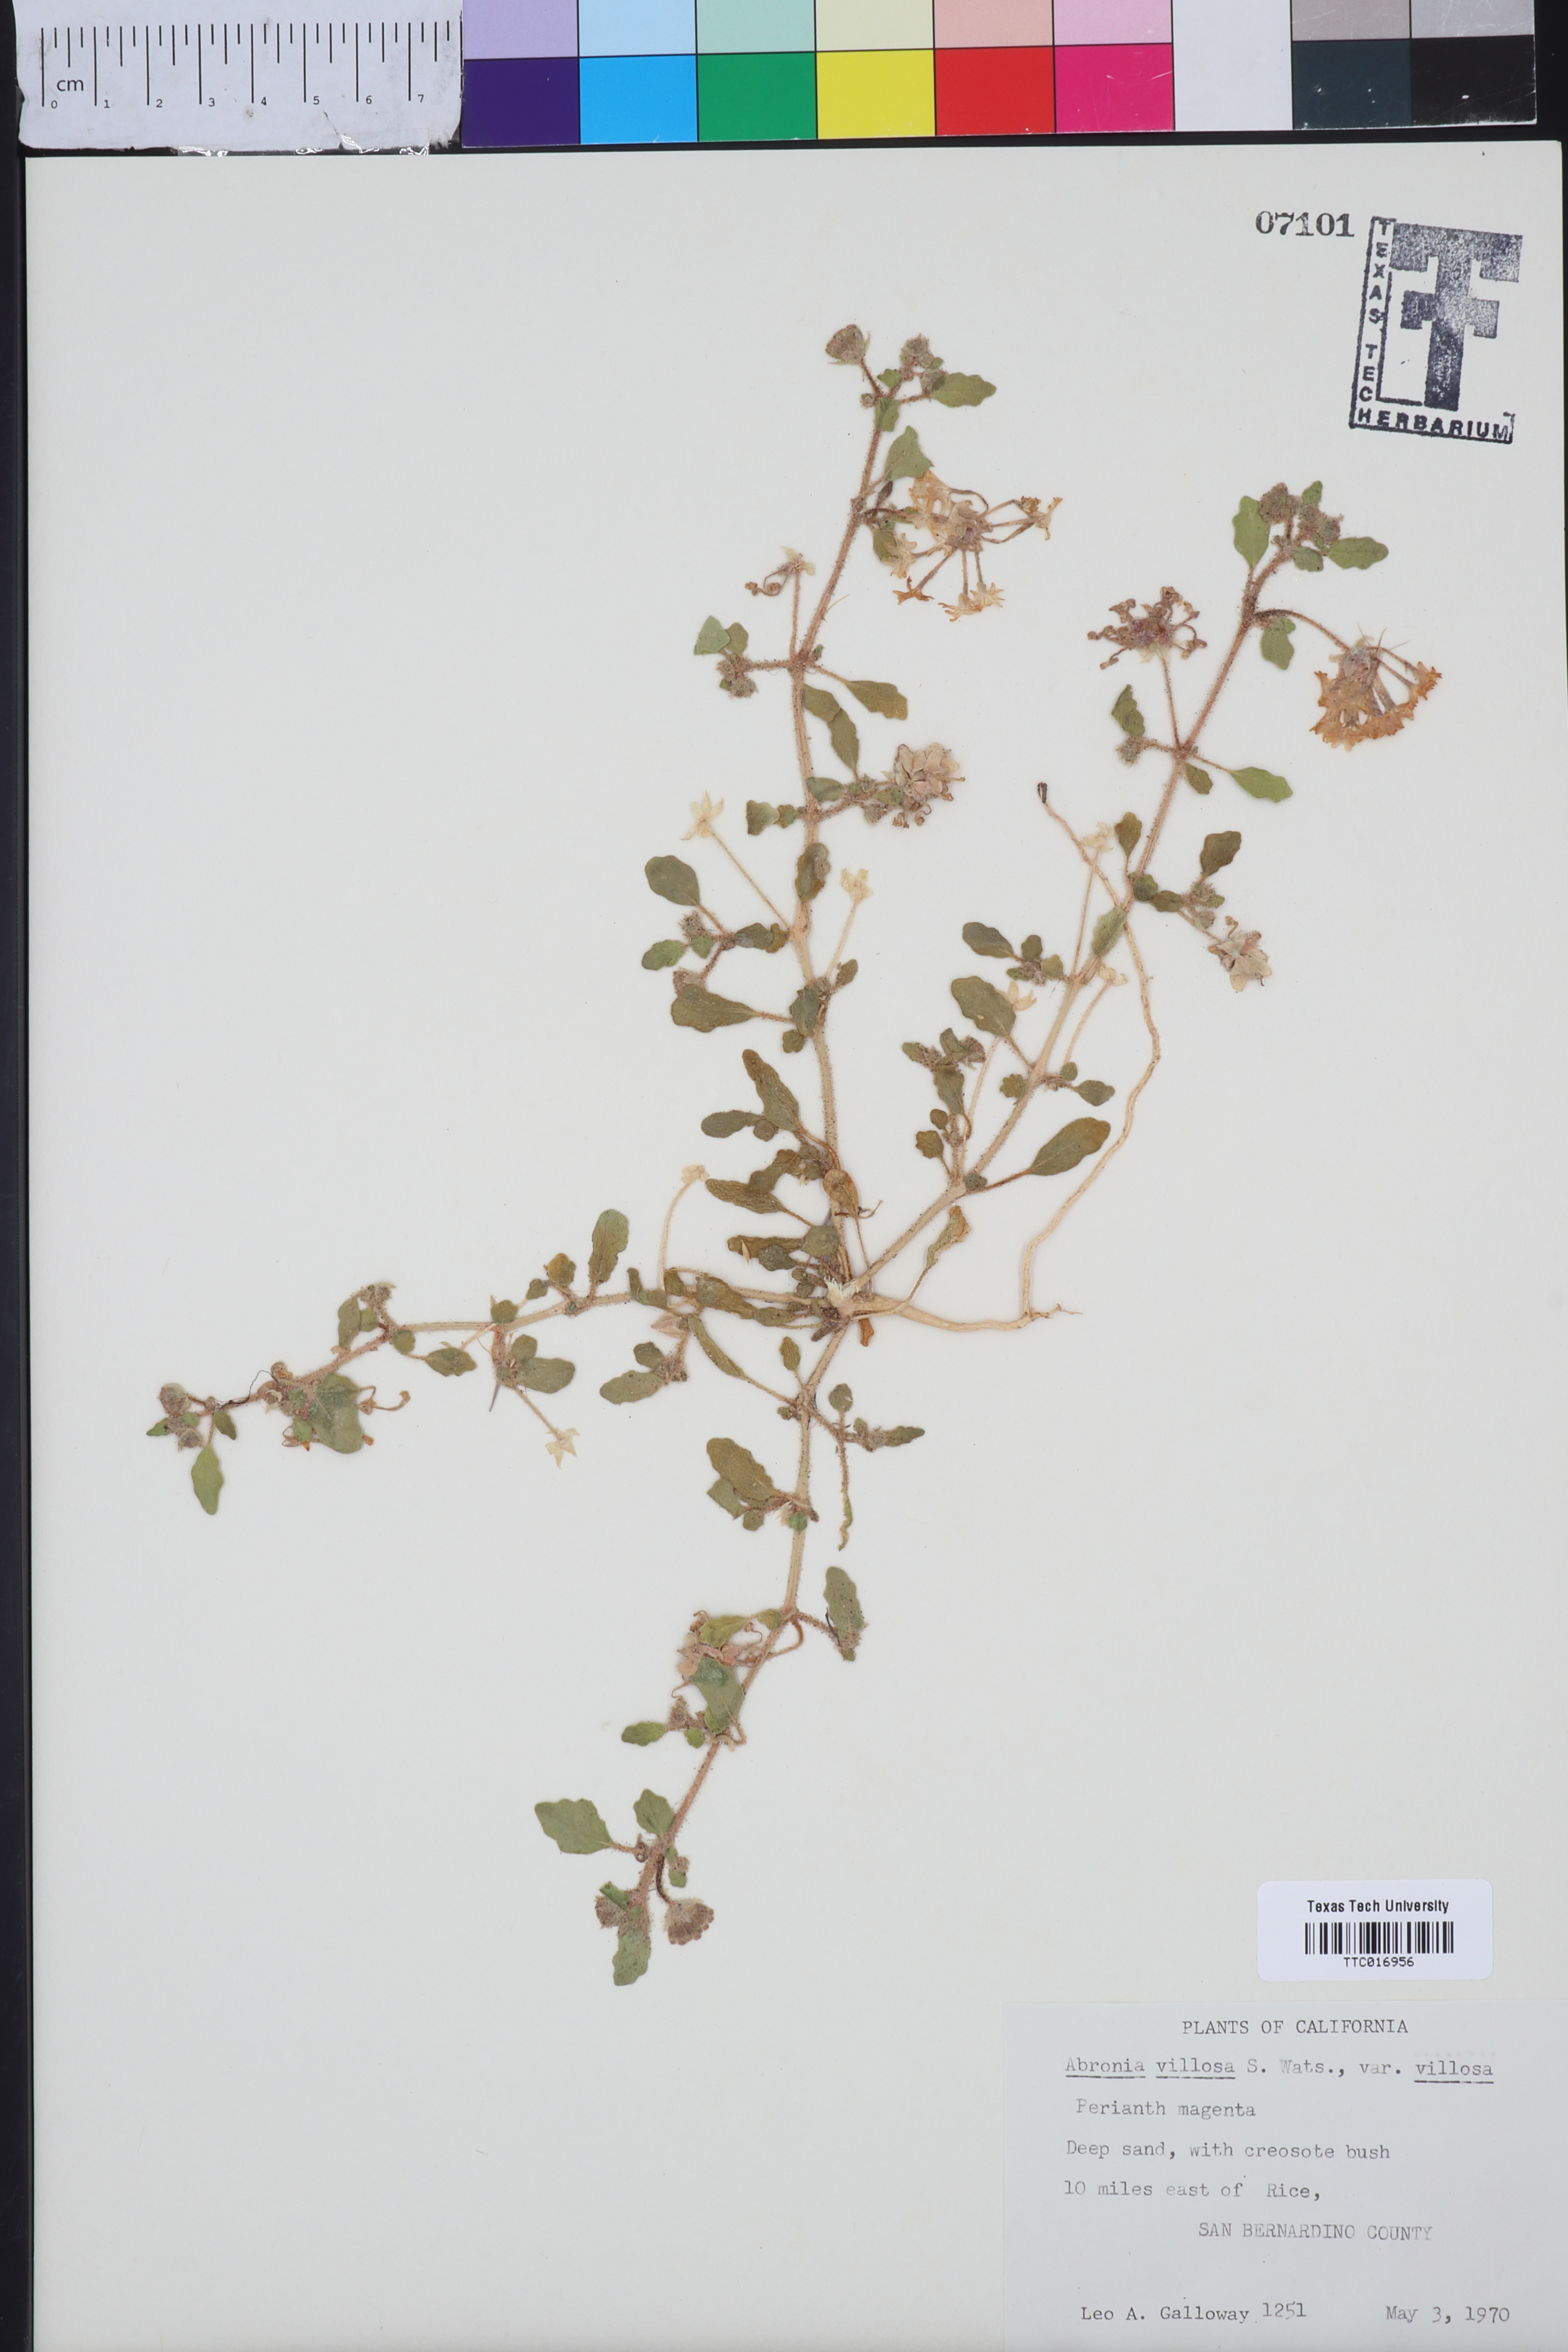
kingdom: Plantae
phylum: Tracheophyta
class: Magnoliopsida
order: Caryophyllales
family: Nyctaginaceae
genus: Abronia
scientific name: Abronia villosa
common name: Desert sand-verbena
